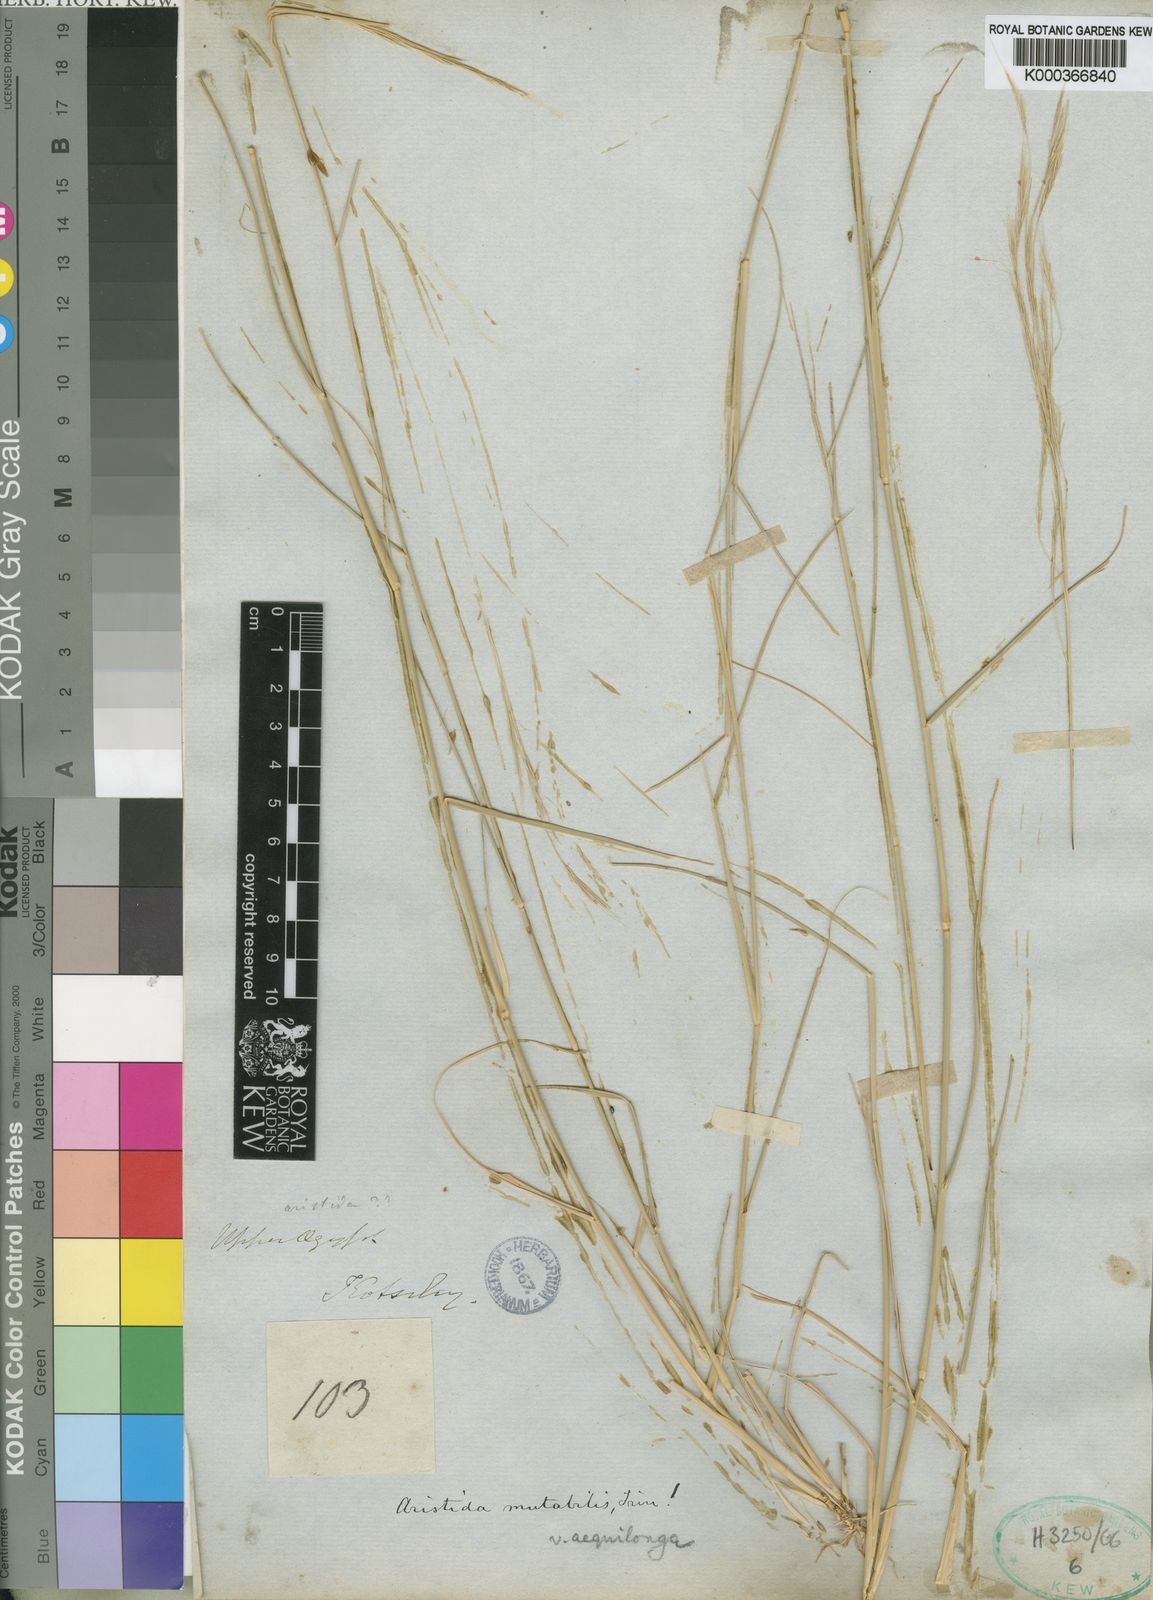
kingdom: Plantae
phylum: Tracheophyta
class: Liliopsida
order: Poales
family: Poaceae
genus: Aristida
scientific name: Aristida mutabilis
